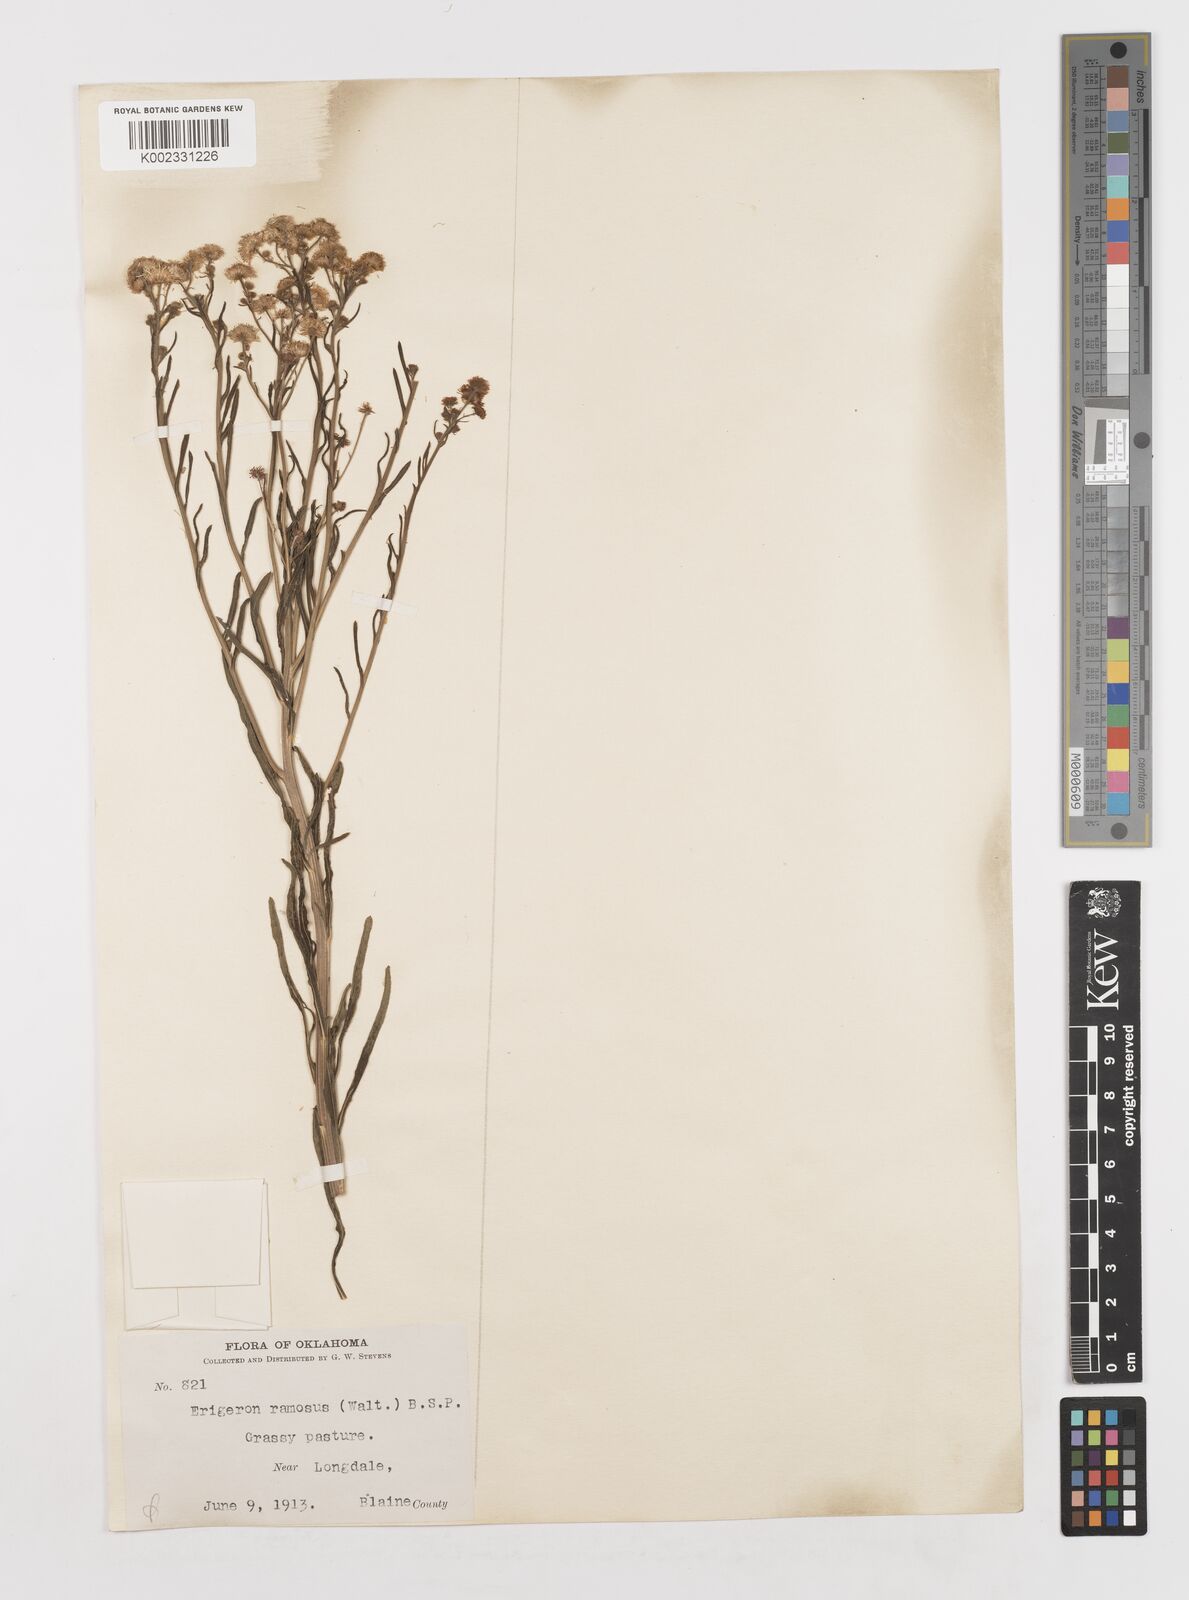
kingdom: Plantae
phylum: Tracheophyta
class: Magnoliopsida
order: Asterales
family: Asteraceae
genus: Erigeron
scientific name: Erigeron strigosus
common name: Common eastern fleabane
